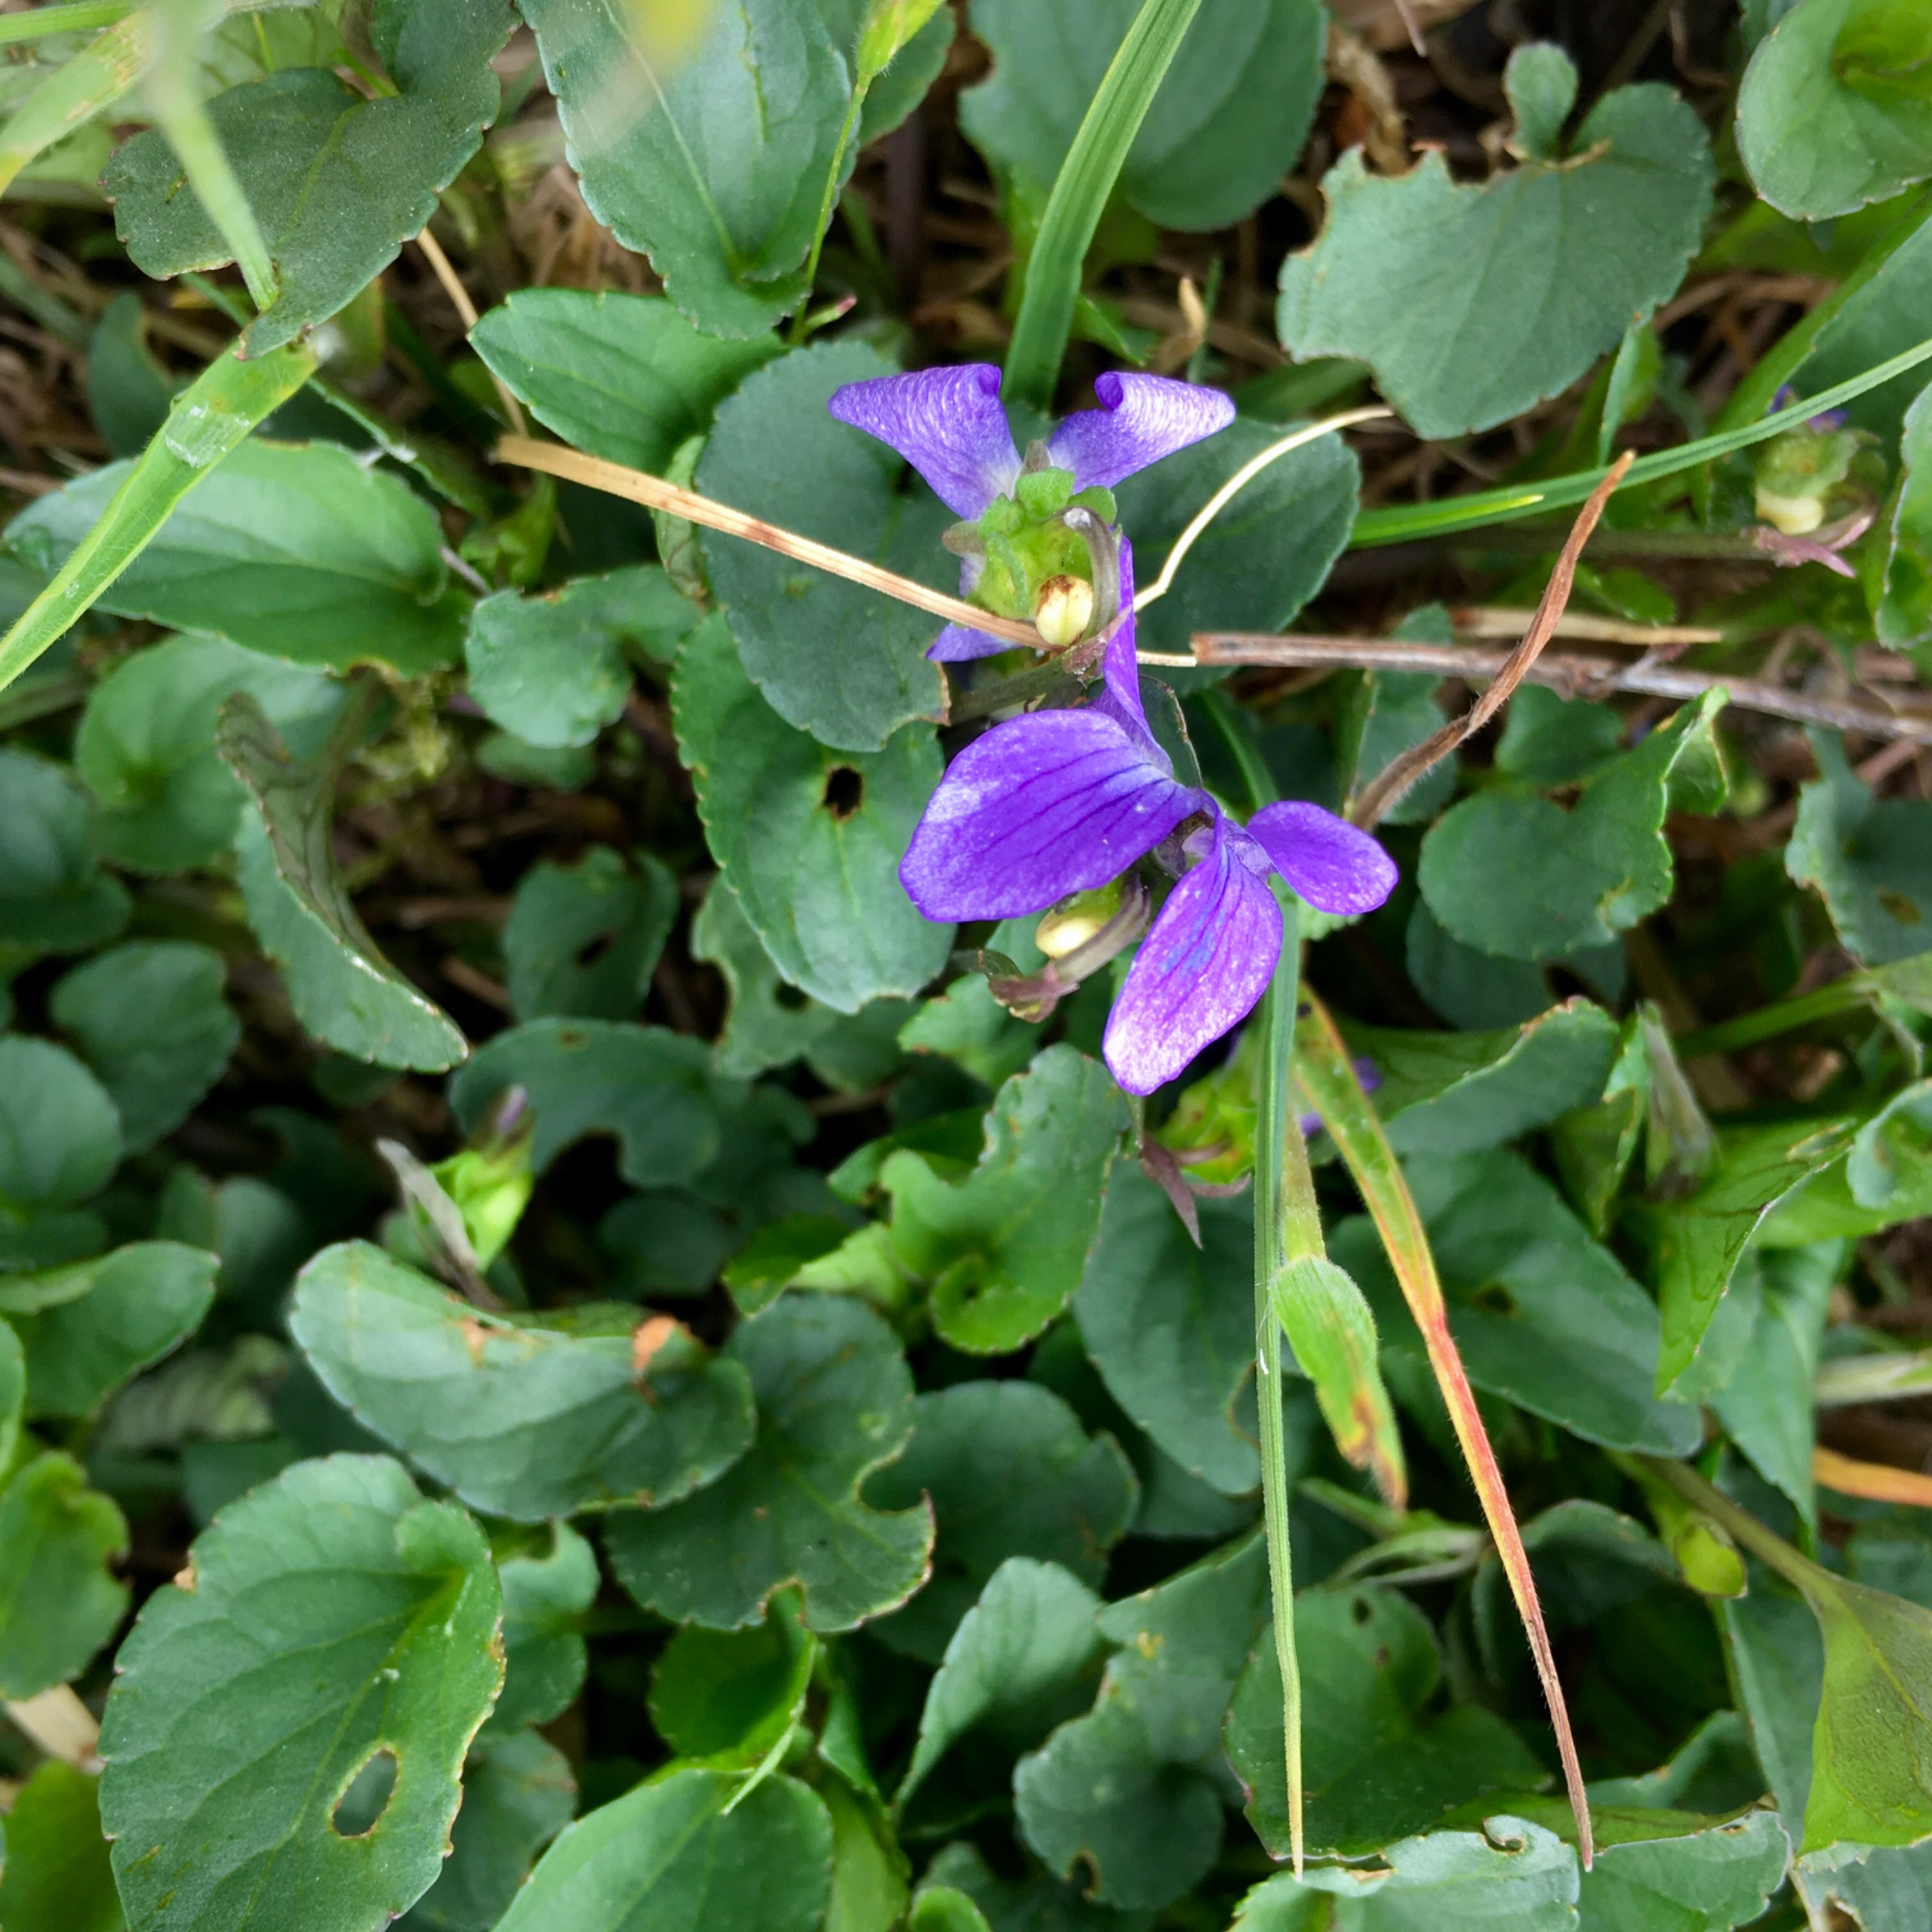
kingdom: Plantae
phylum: Tracheophyta
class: Magnoliopsida
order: Malpighiales
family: Violaceae
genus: Viola
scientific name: Viola canina
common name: Hunde-viol
